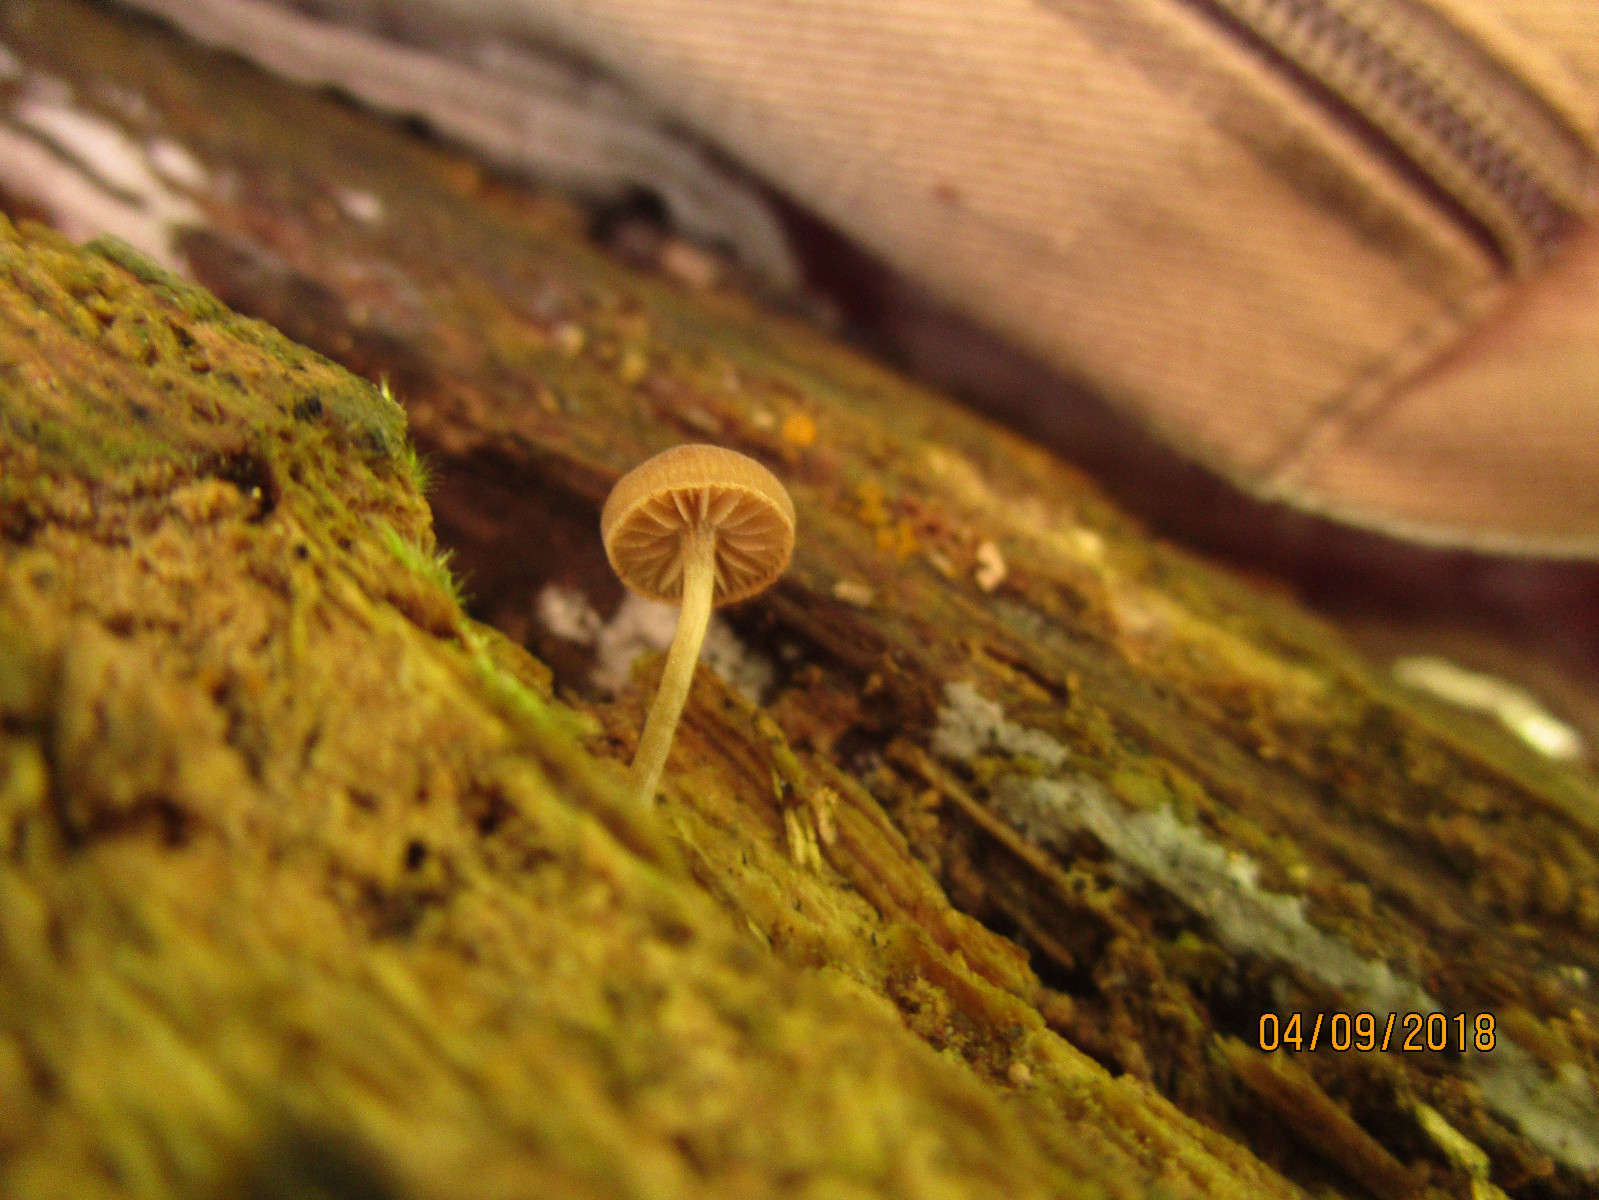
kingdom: Fungi
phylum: Basidiomycota
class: Agaricomycetes
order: Agaricales
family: Crepidotaceae
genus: Simocybe
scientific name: Simocybe
